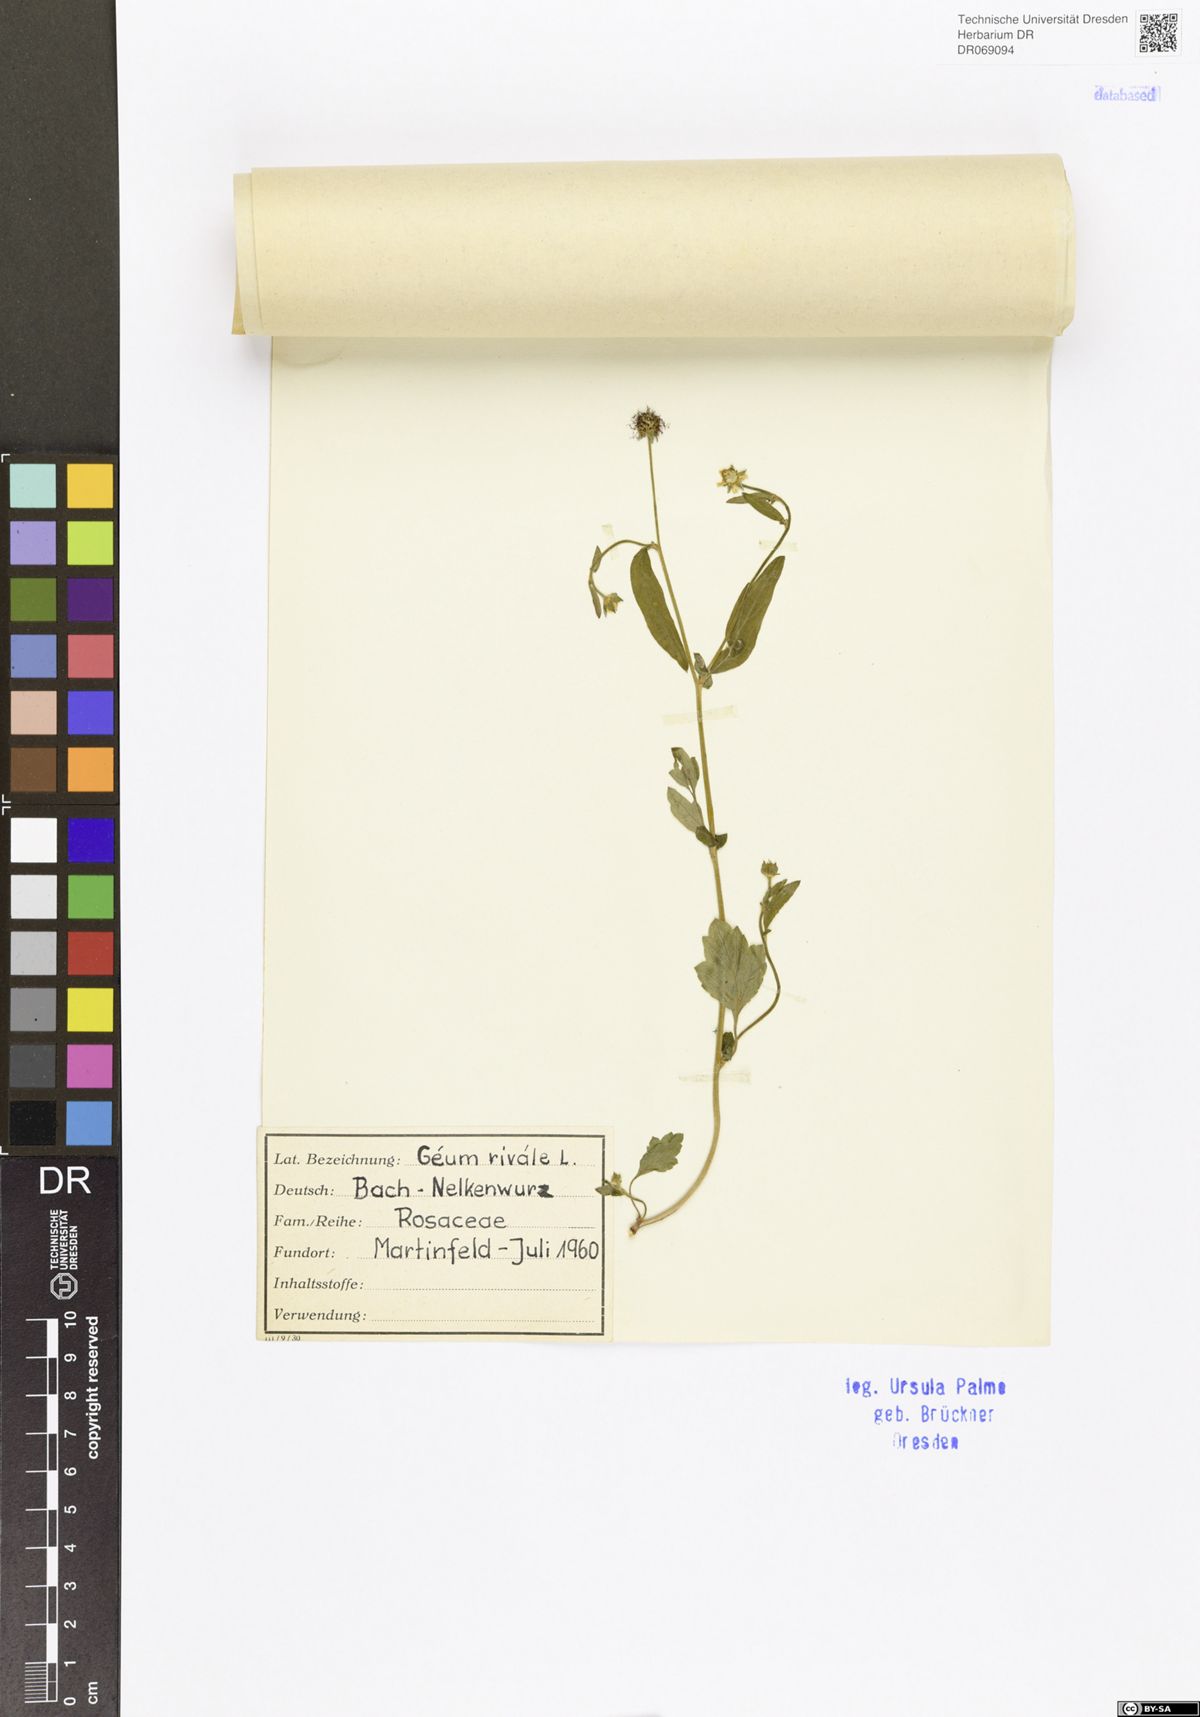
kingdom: Plantae
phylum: Tracheophyta
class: Magnoliopsida
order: Rosales
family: Rosaceae
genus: Geum
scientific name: Geum rivale
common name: Water avens
